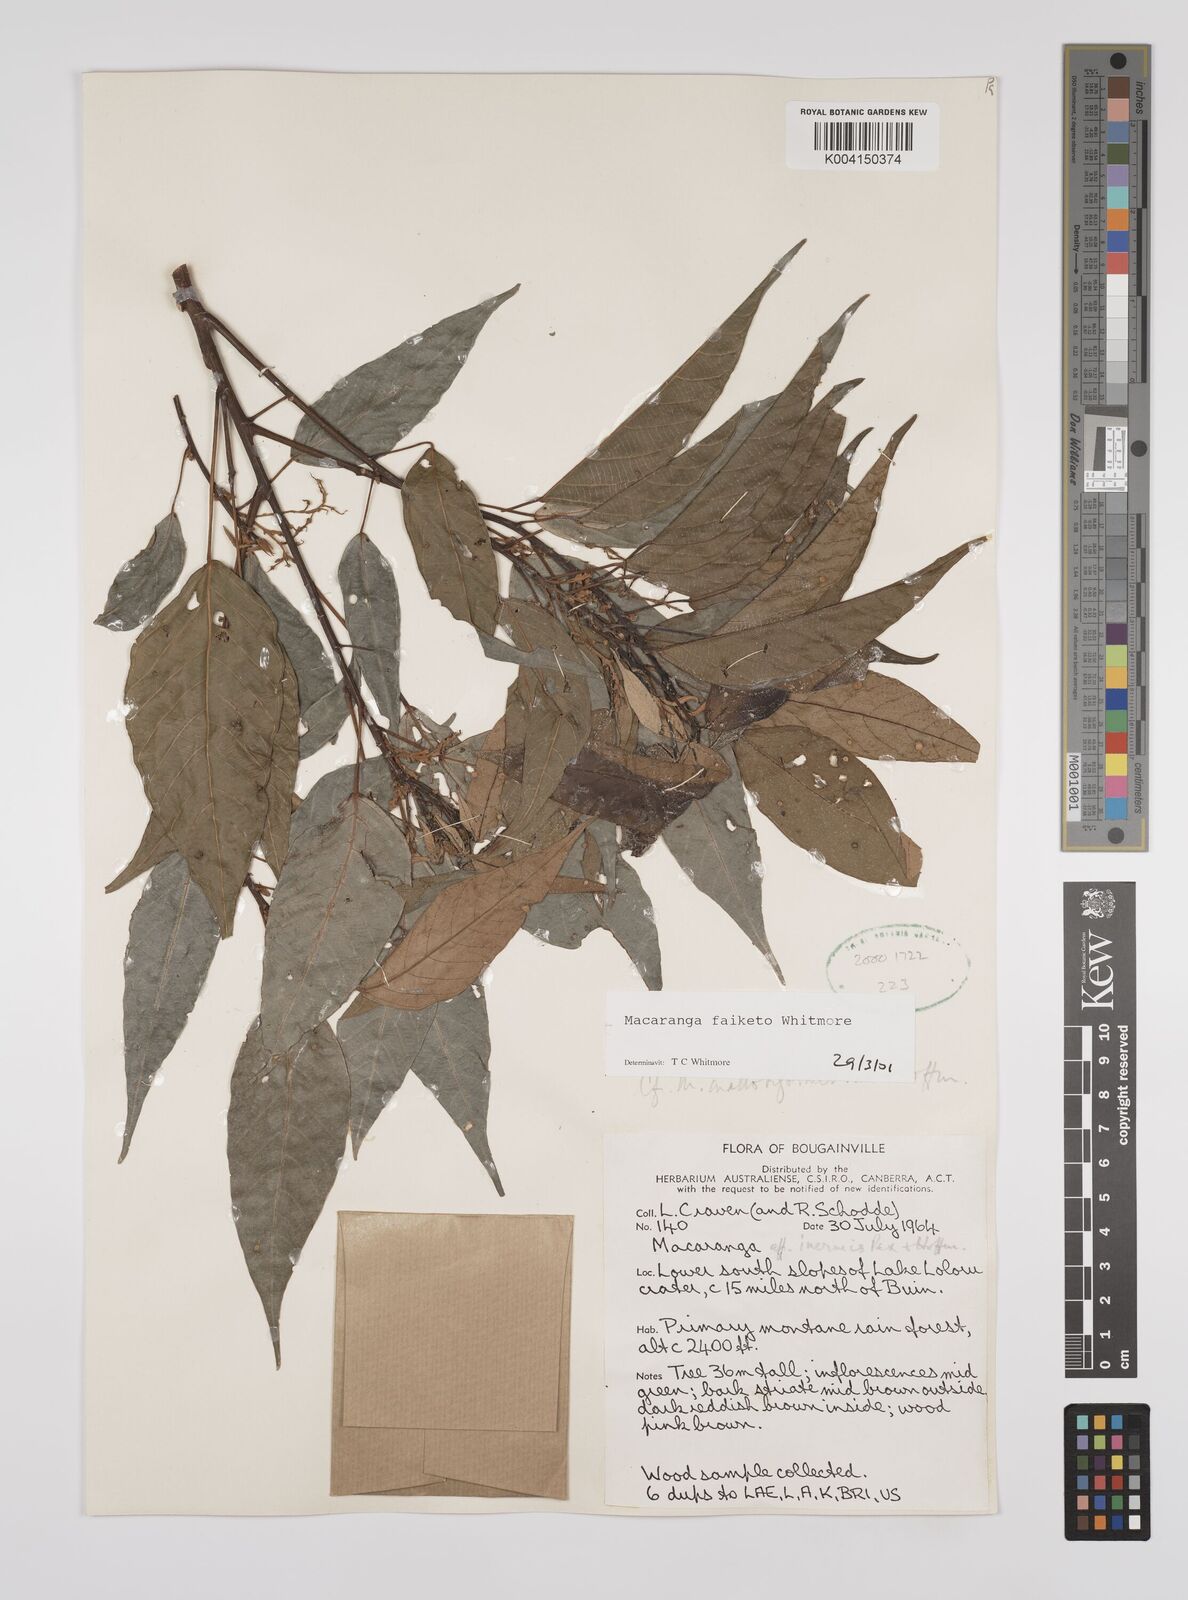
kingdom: Plantae
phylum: Tracheophyta
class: Magnoliopsida
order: Malpighiales
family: Euphorbiaceae
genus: Macaranga
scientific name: Macaranga faiketo
